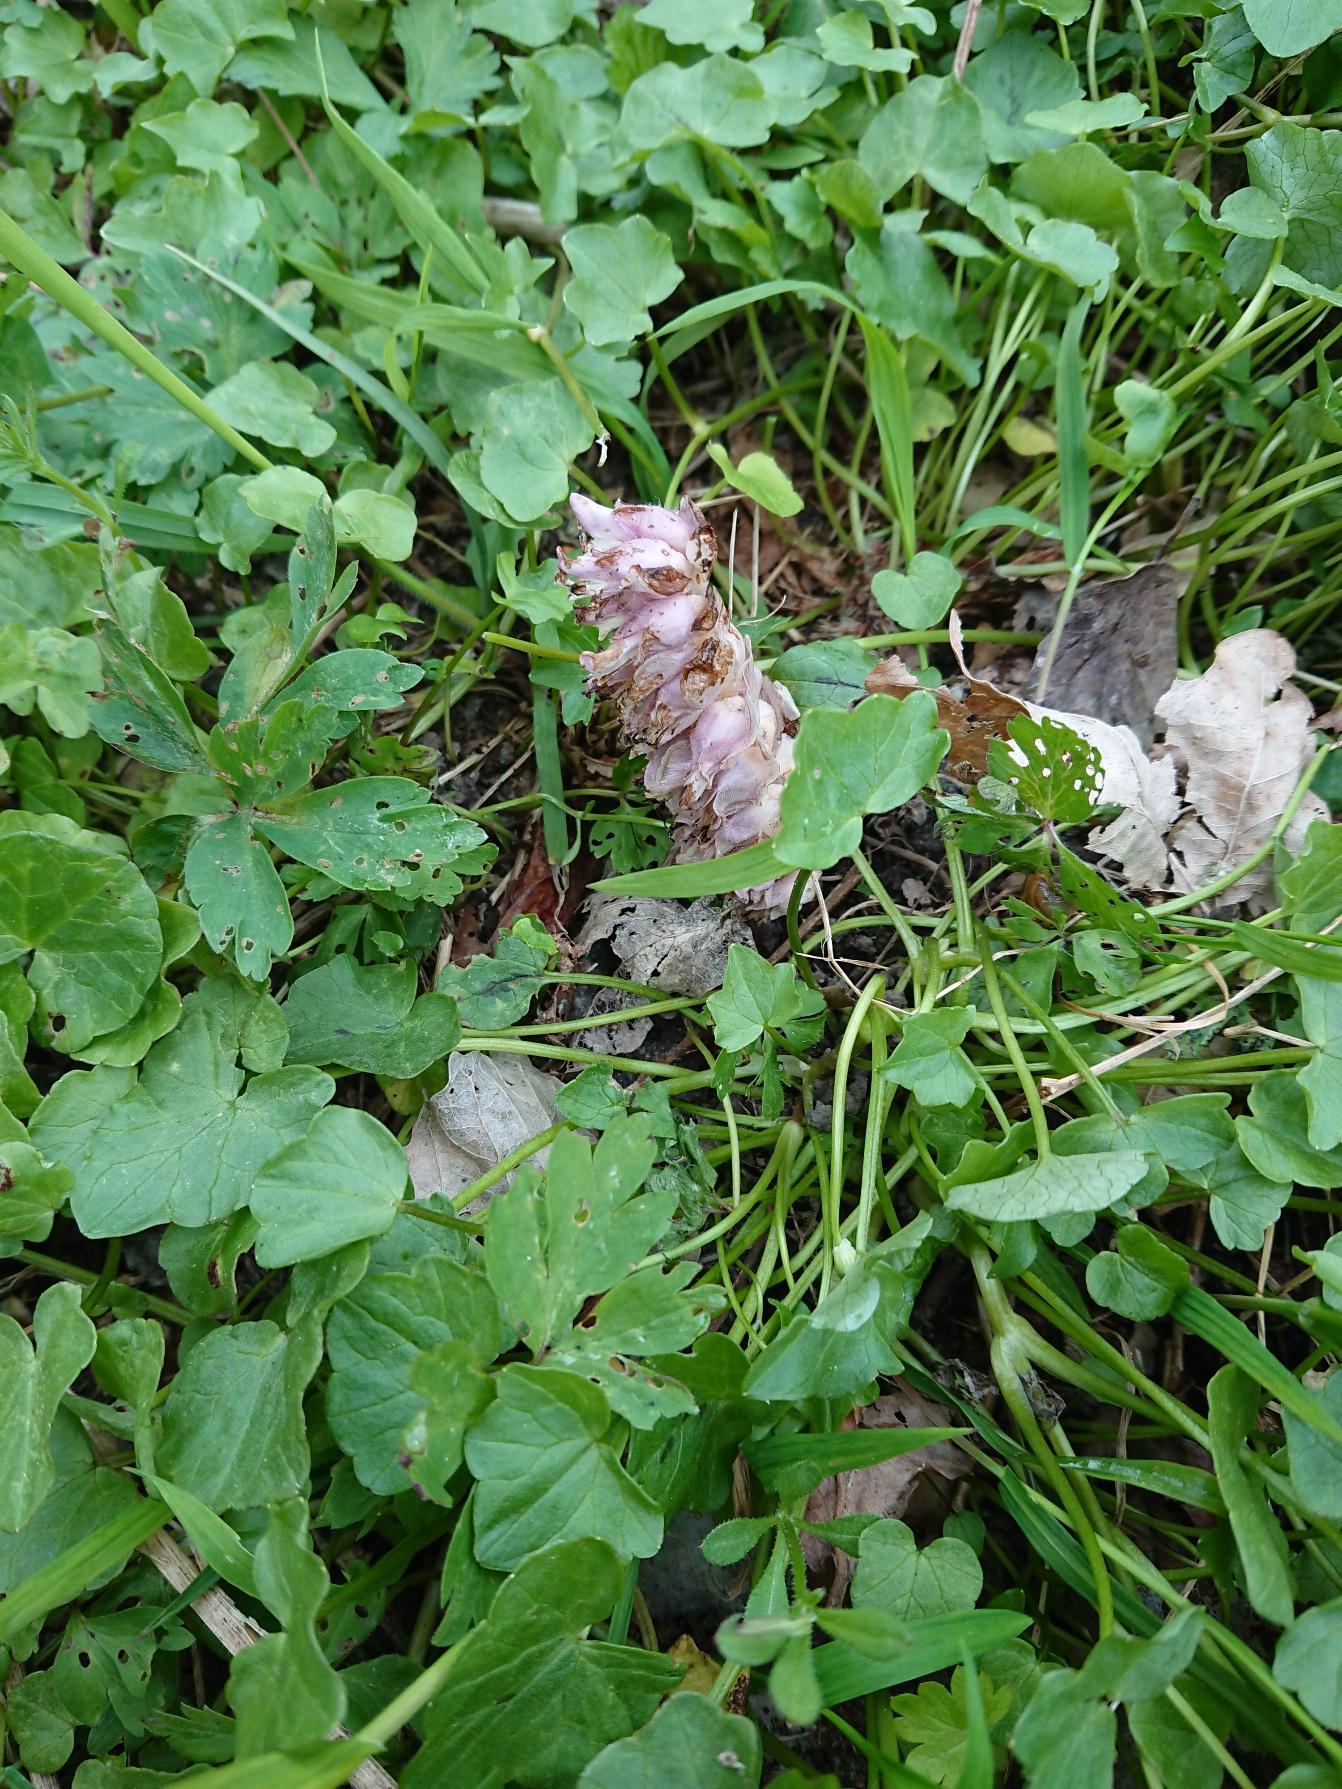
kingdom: Plantae
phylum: Tracheophyta
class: Magnoliopsida
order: Lamiales
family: Orobanchaceae
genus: Lathraea
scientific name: Lathraea squamaria
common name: Skælrod
